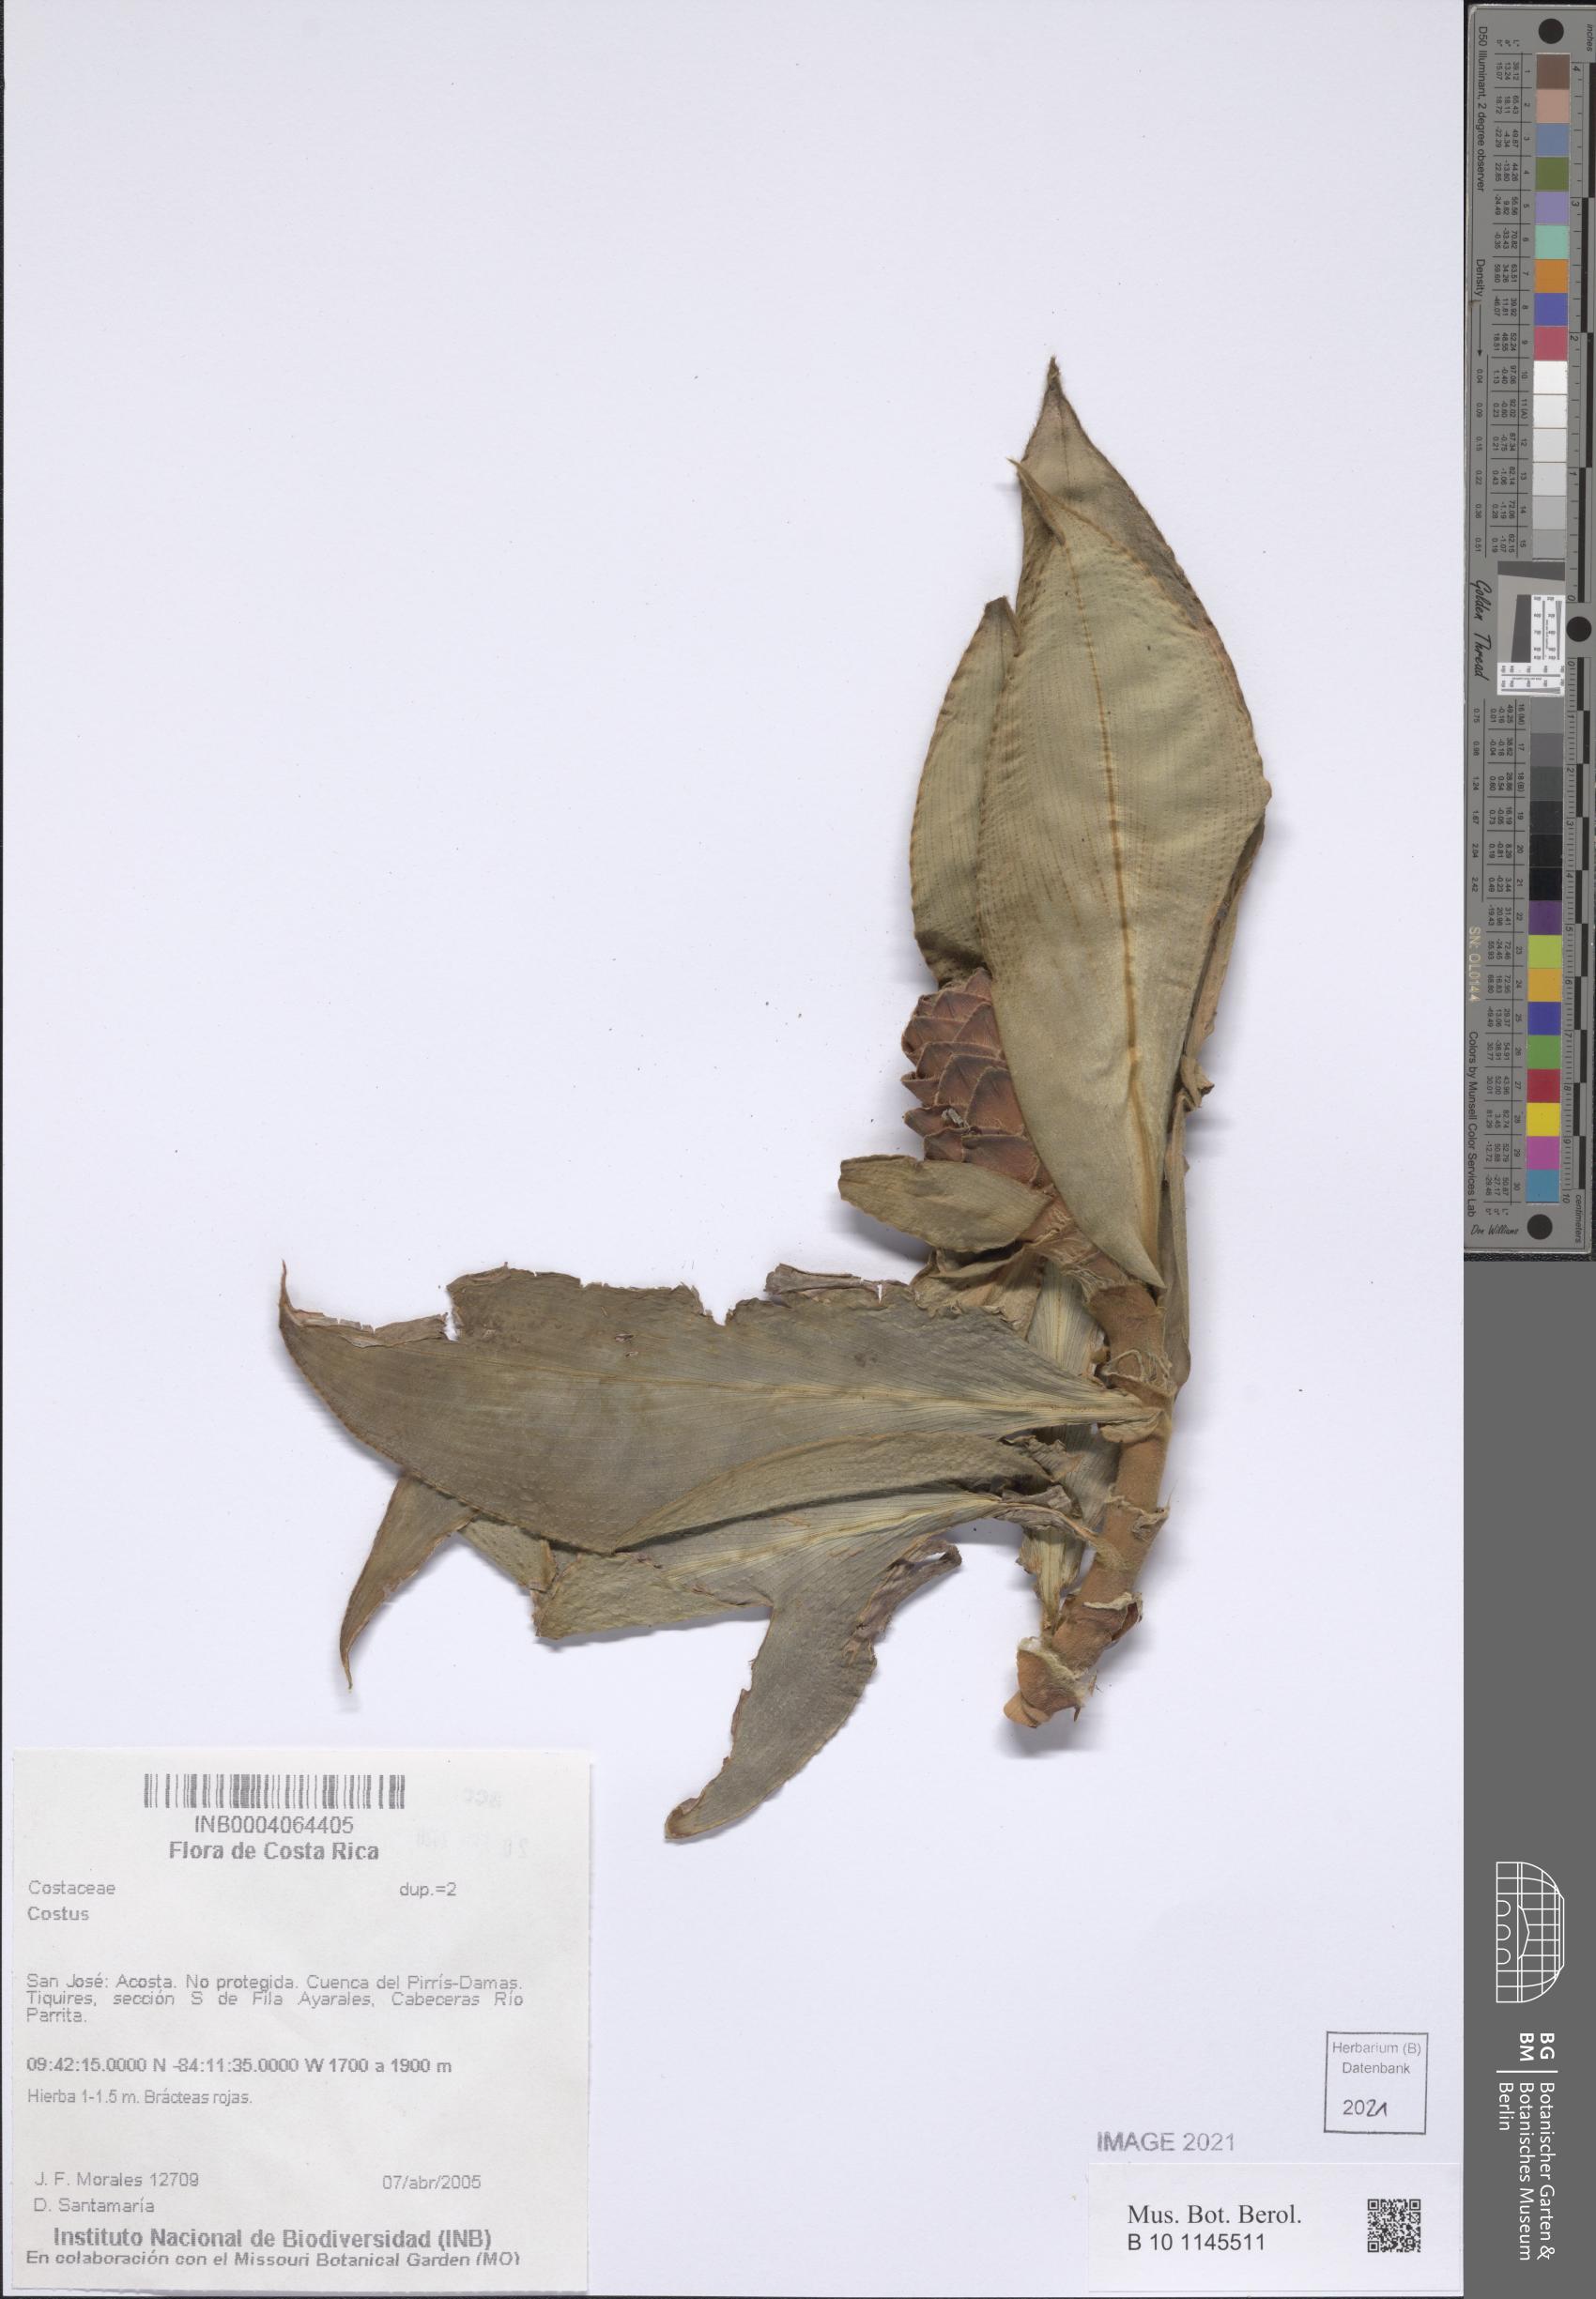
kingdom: Plantae
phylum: Tracheophyta
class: Liliopsida
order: Zingiberales
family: Costaceae
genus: Costus
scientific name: Costus
